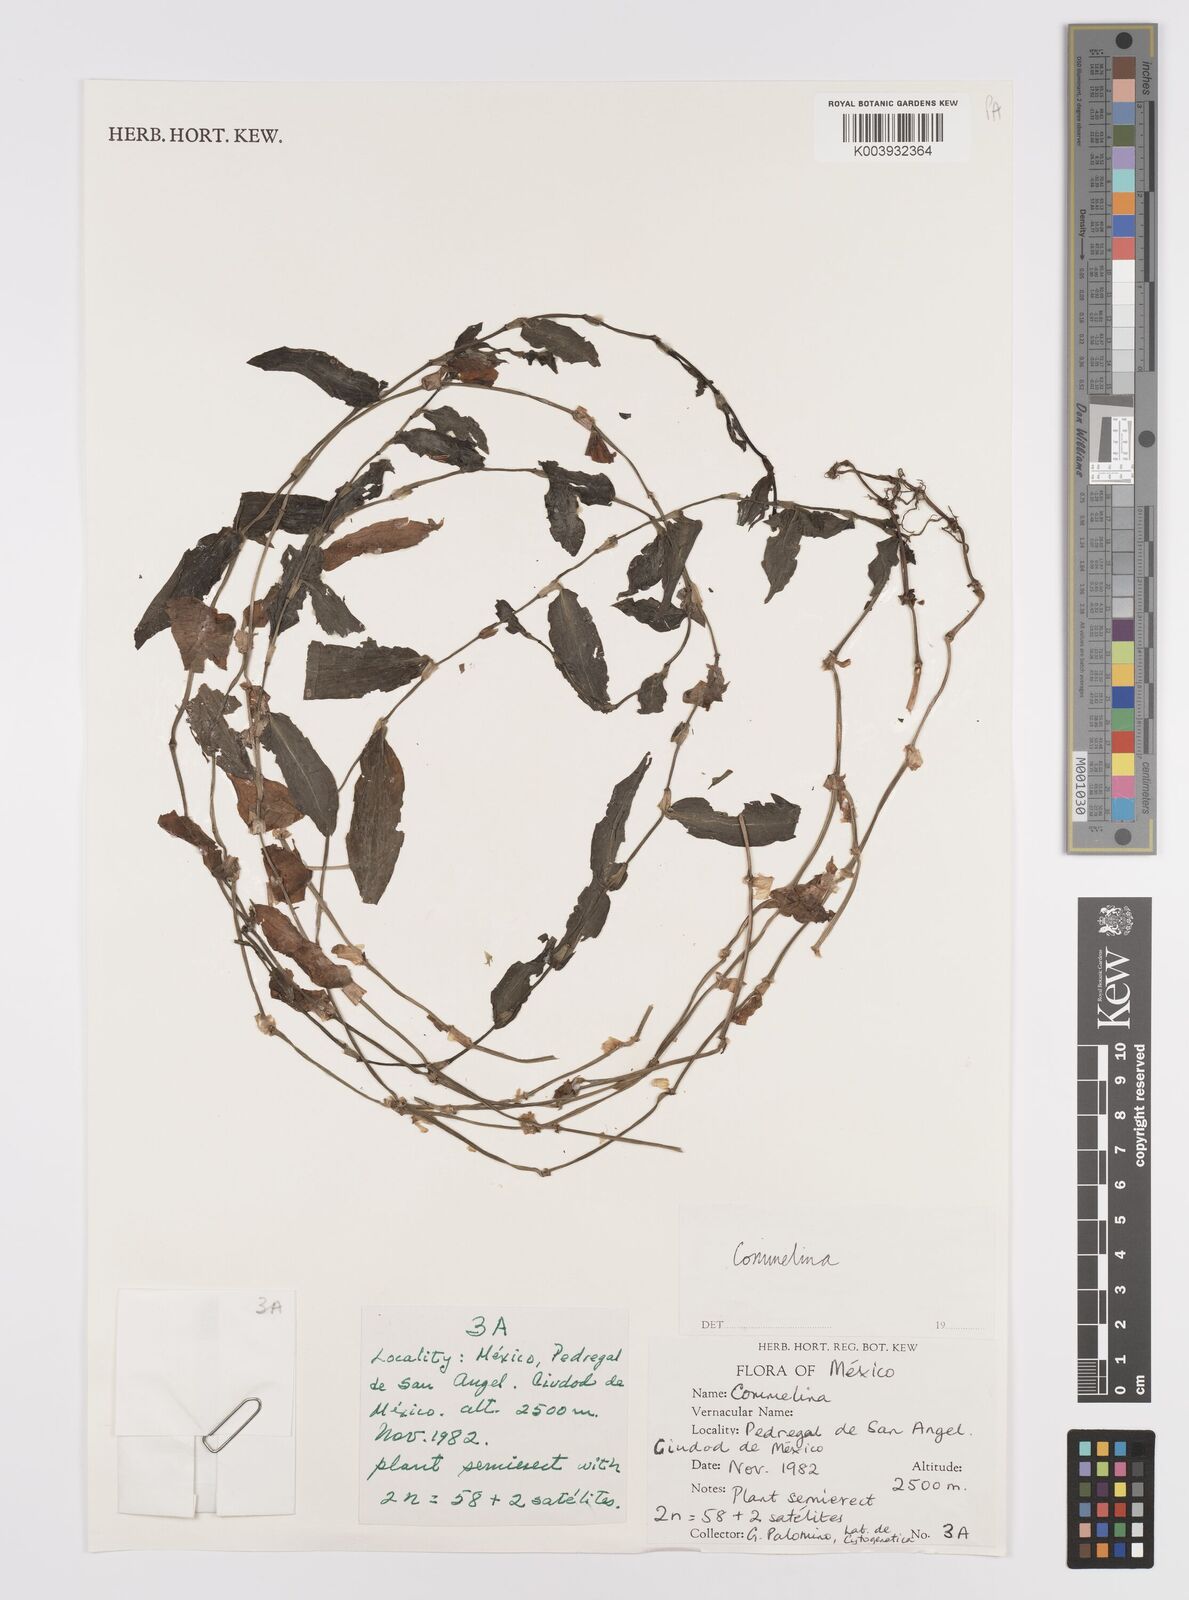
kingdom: Plantae
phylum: Tracheophyta
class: Liliopsida
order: Commelinales
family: Commelinaceae
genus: Commelina
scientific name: Commelina
